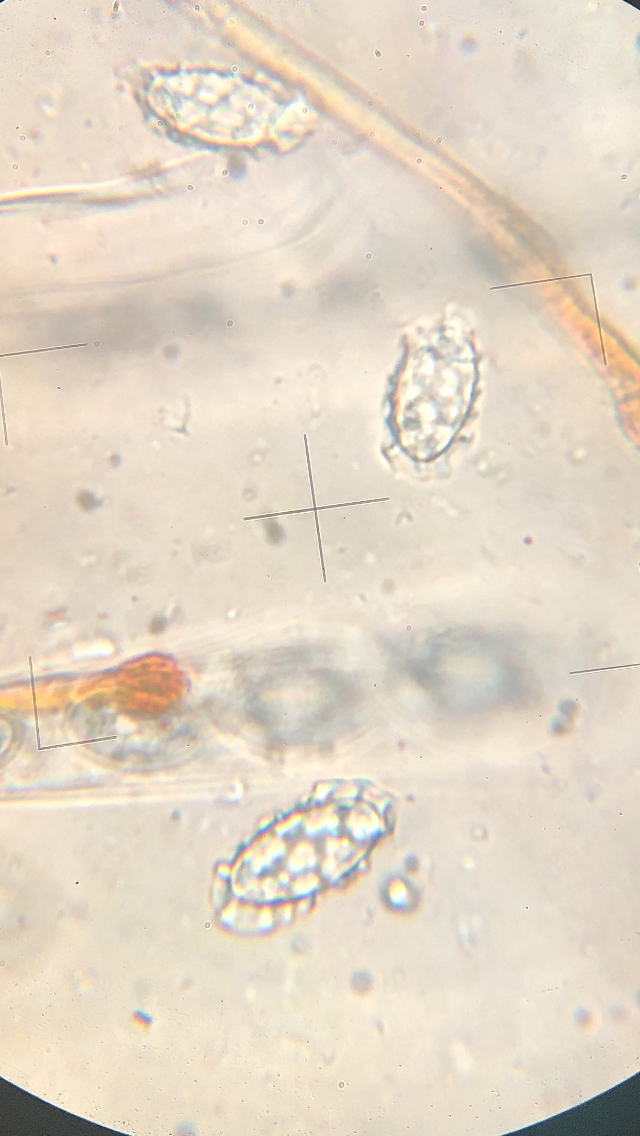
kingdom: Fungi
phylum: Ascomycota
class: Pezizomycetes
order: Pezizales
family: Pyronemataceae
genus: Melastiza
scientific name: Melastiza cornubiensis
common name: mørkrandet rødbæger
